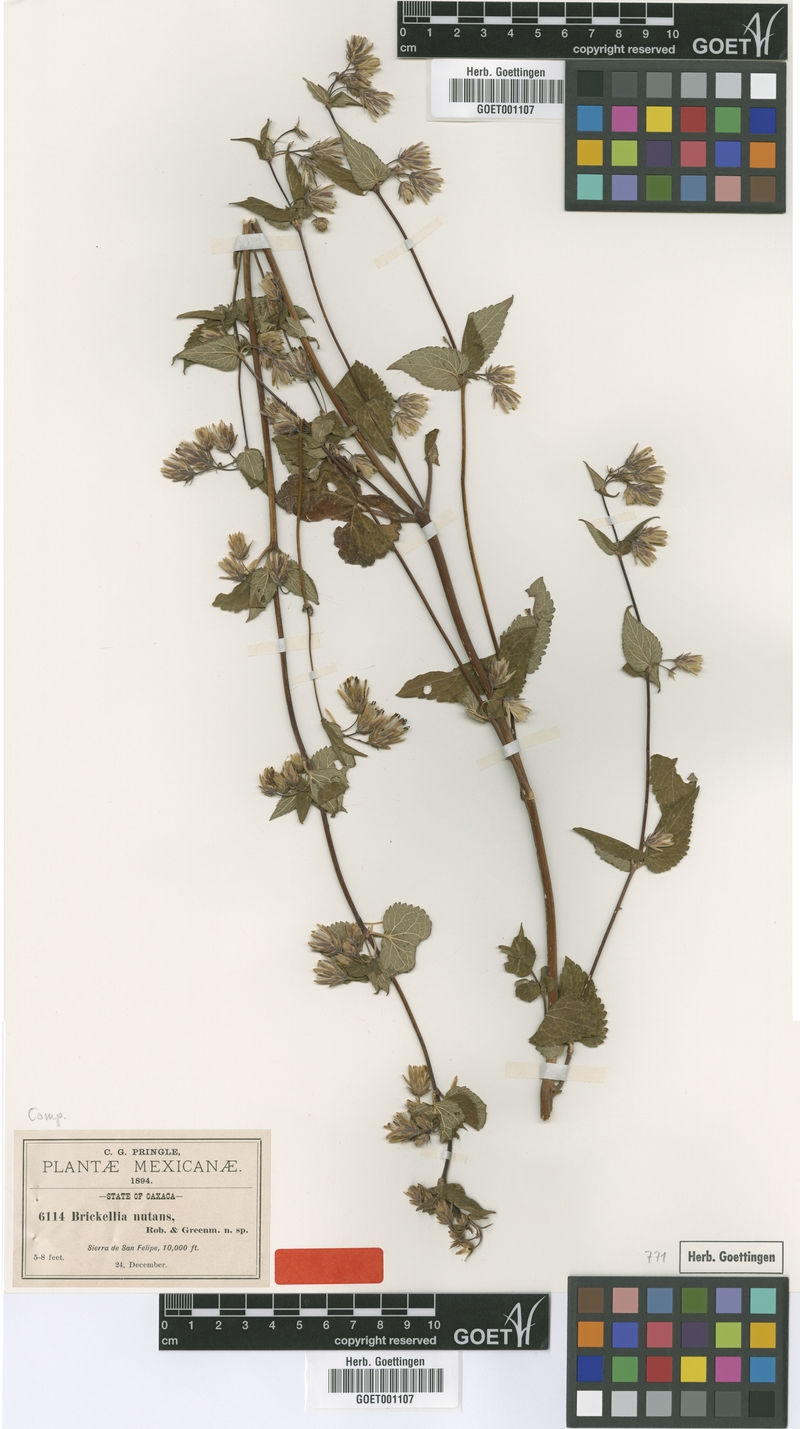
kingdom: Plantae
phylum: Tracheophyta
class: Magnoliopsida
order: Asterales
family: Asteraceae
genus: Brickellia
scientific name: Brickellia nutanticeps
